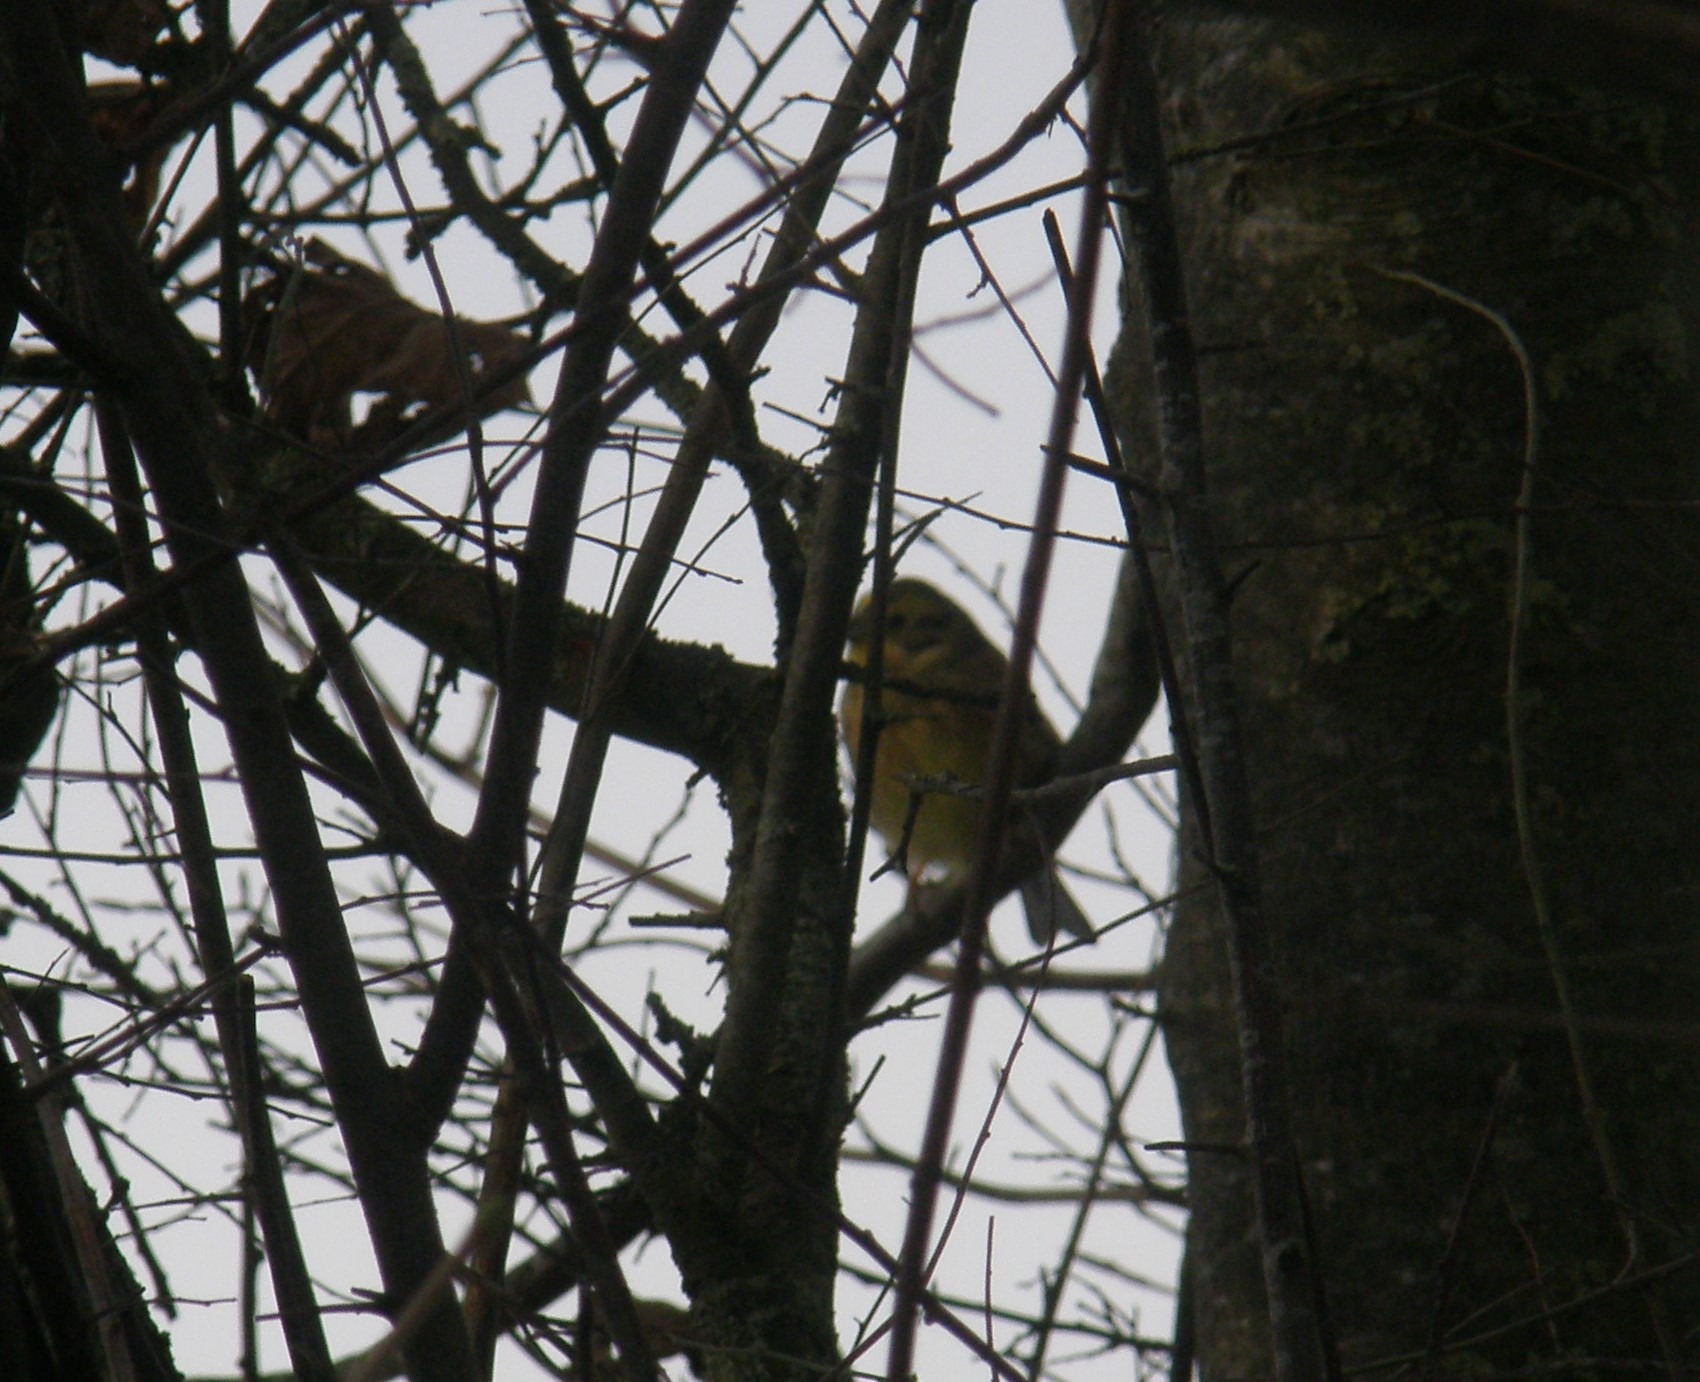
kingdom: Animalia
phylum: Chordata
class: Aves
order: Passeriformes
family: Emberizidae
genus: Emberiza
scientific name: Emberiza citrinella
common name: Gulspurv
